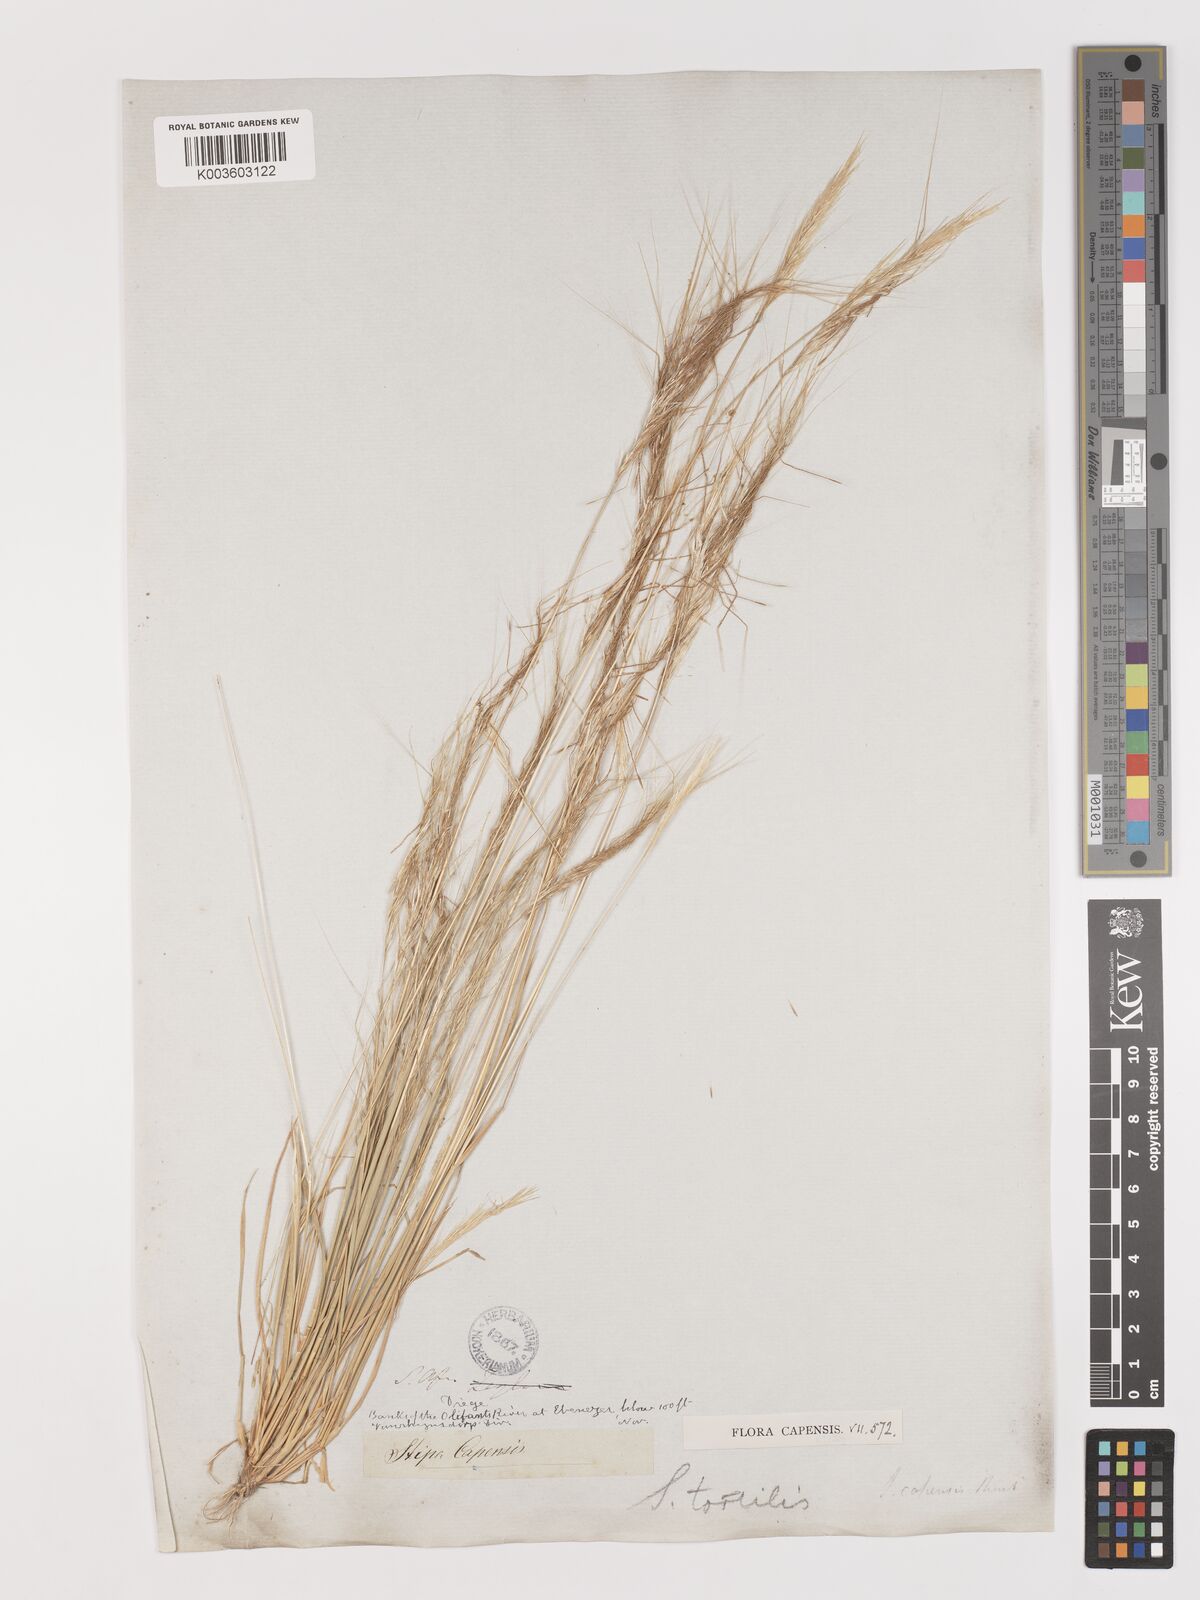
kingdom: Plantae
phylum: Tracheophyta
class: Liliopsida
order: Poales
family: Poaceae
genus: Stipellula
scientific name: Stipellula capensis
